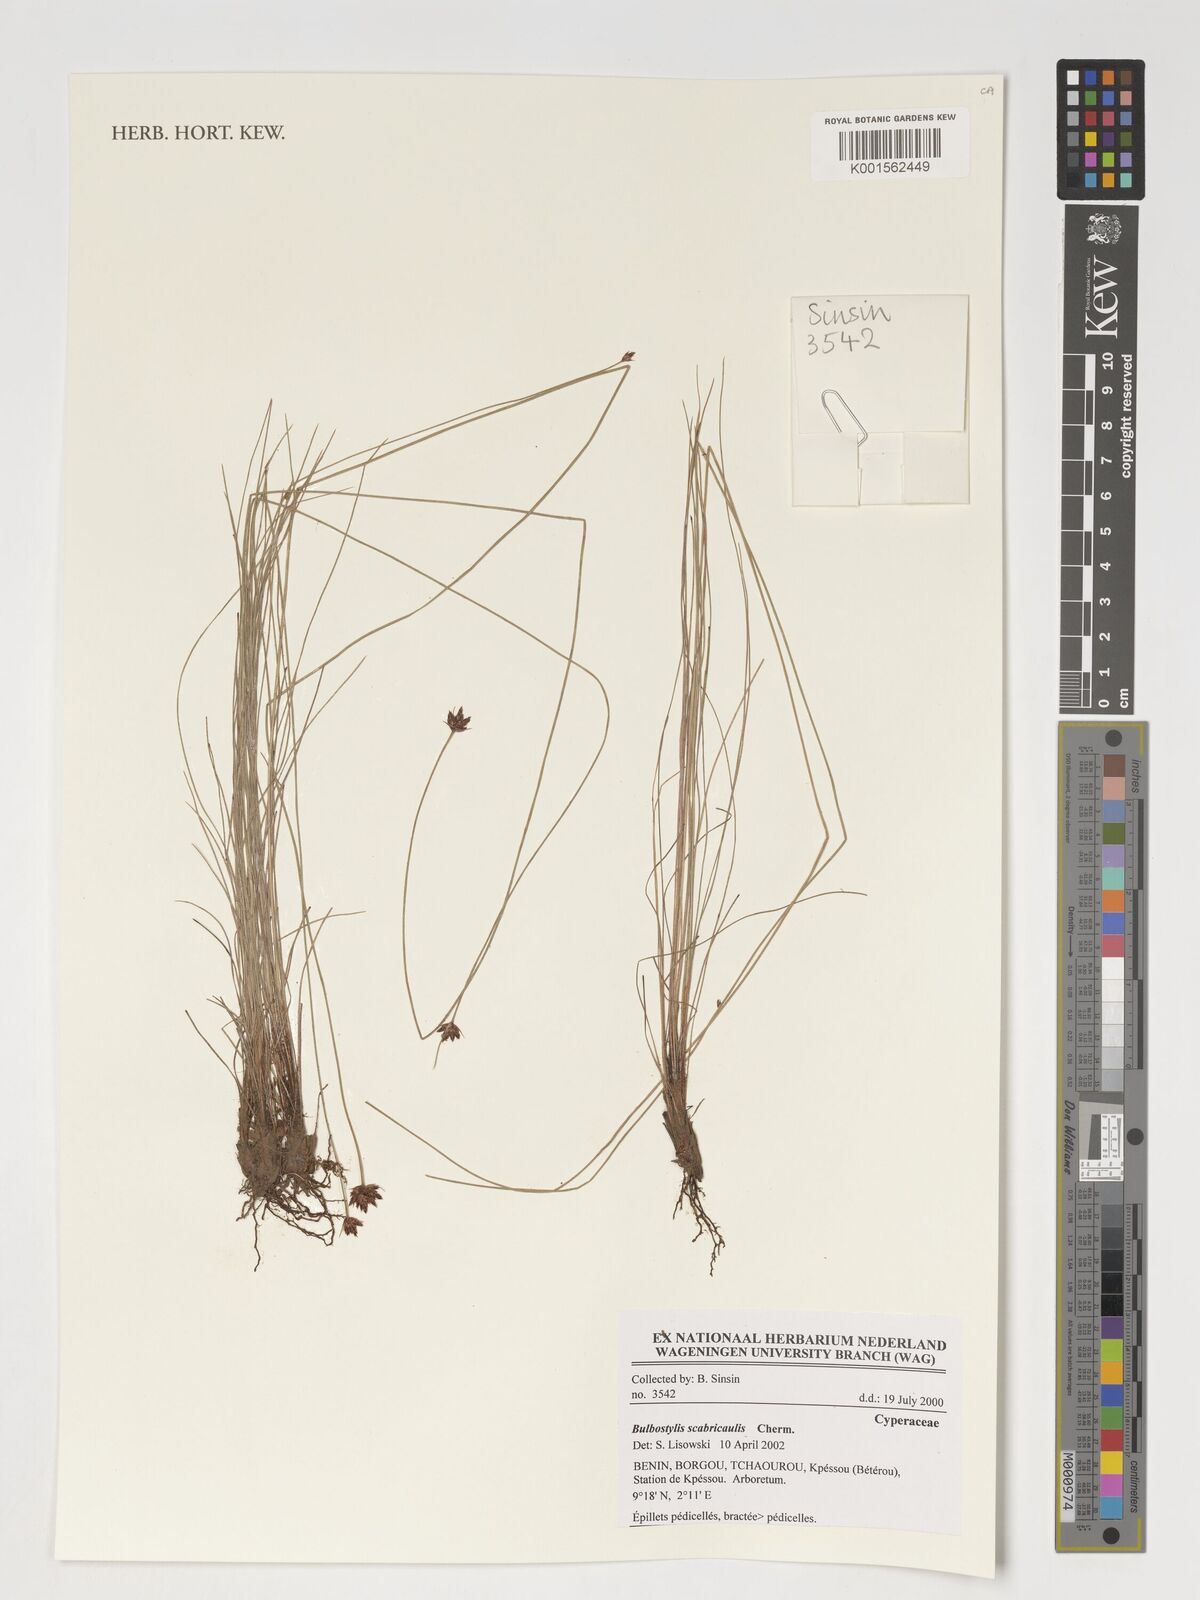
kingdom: Plantae
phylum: Tracheophyta
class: Liliopsida
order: Poales
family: Cyperaceae
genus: Bulbostylis
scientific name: Bulbostylis scabricaulis
